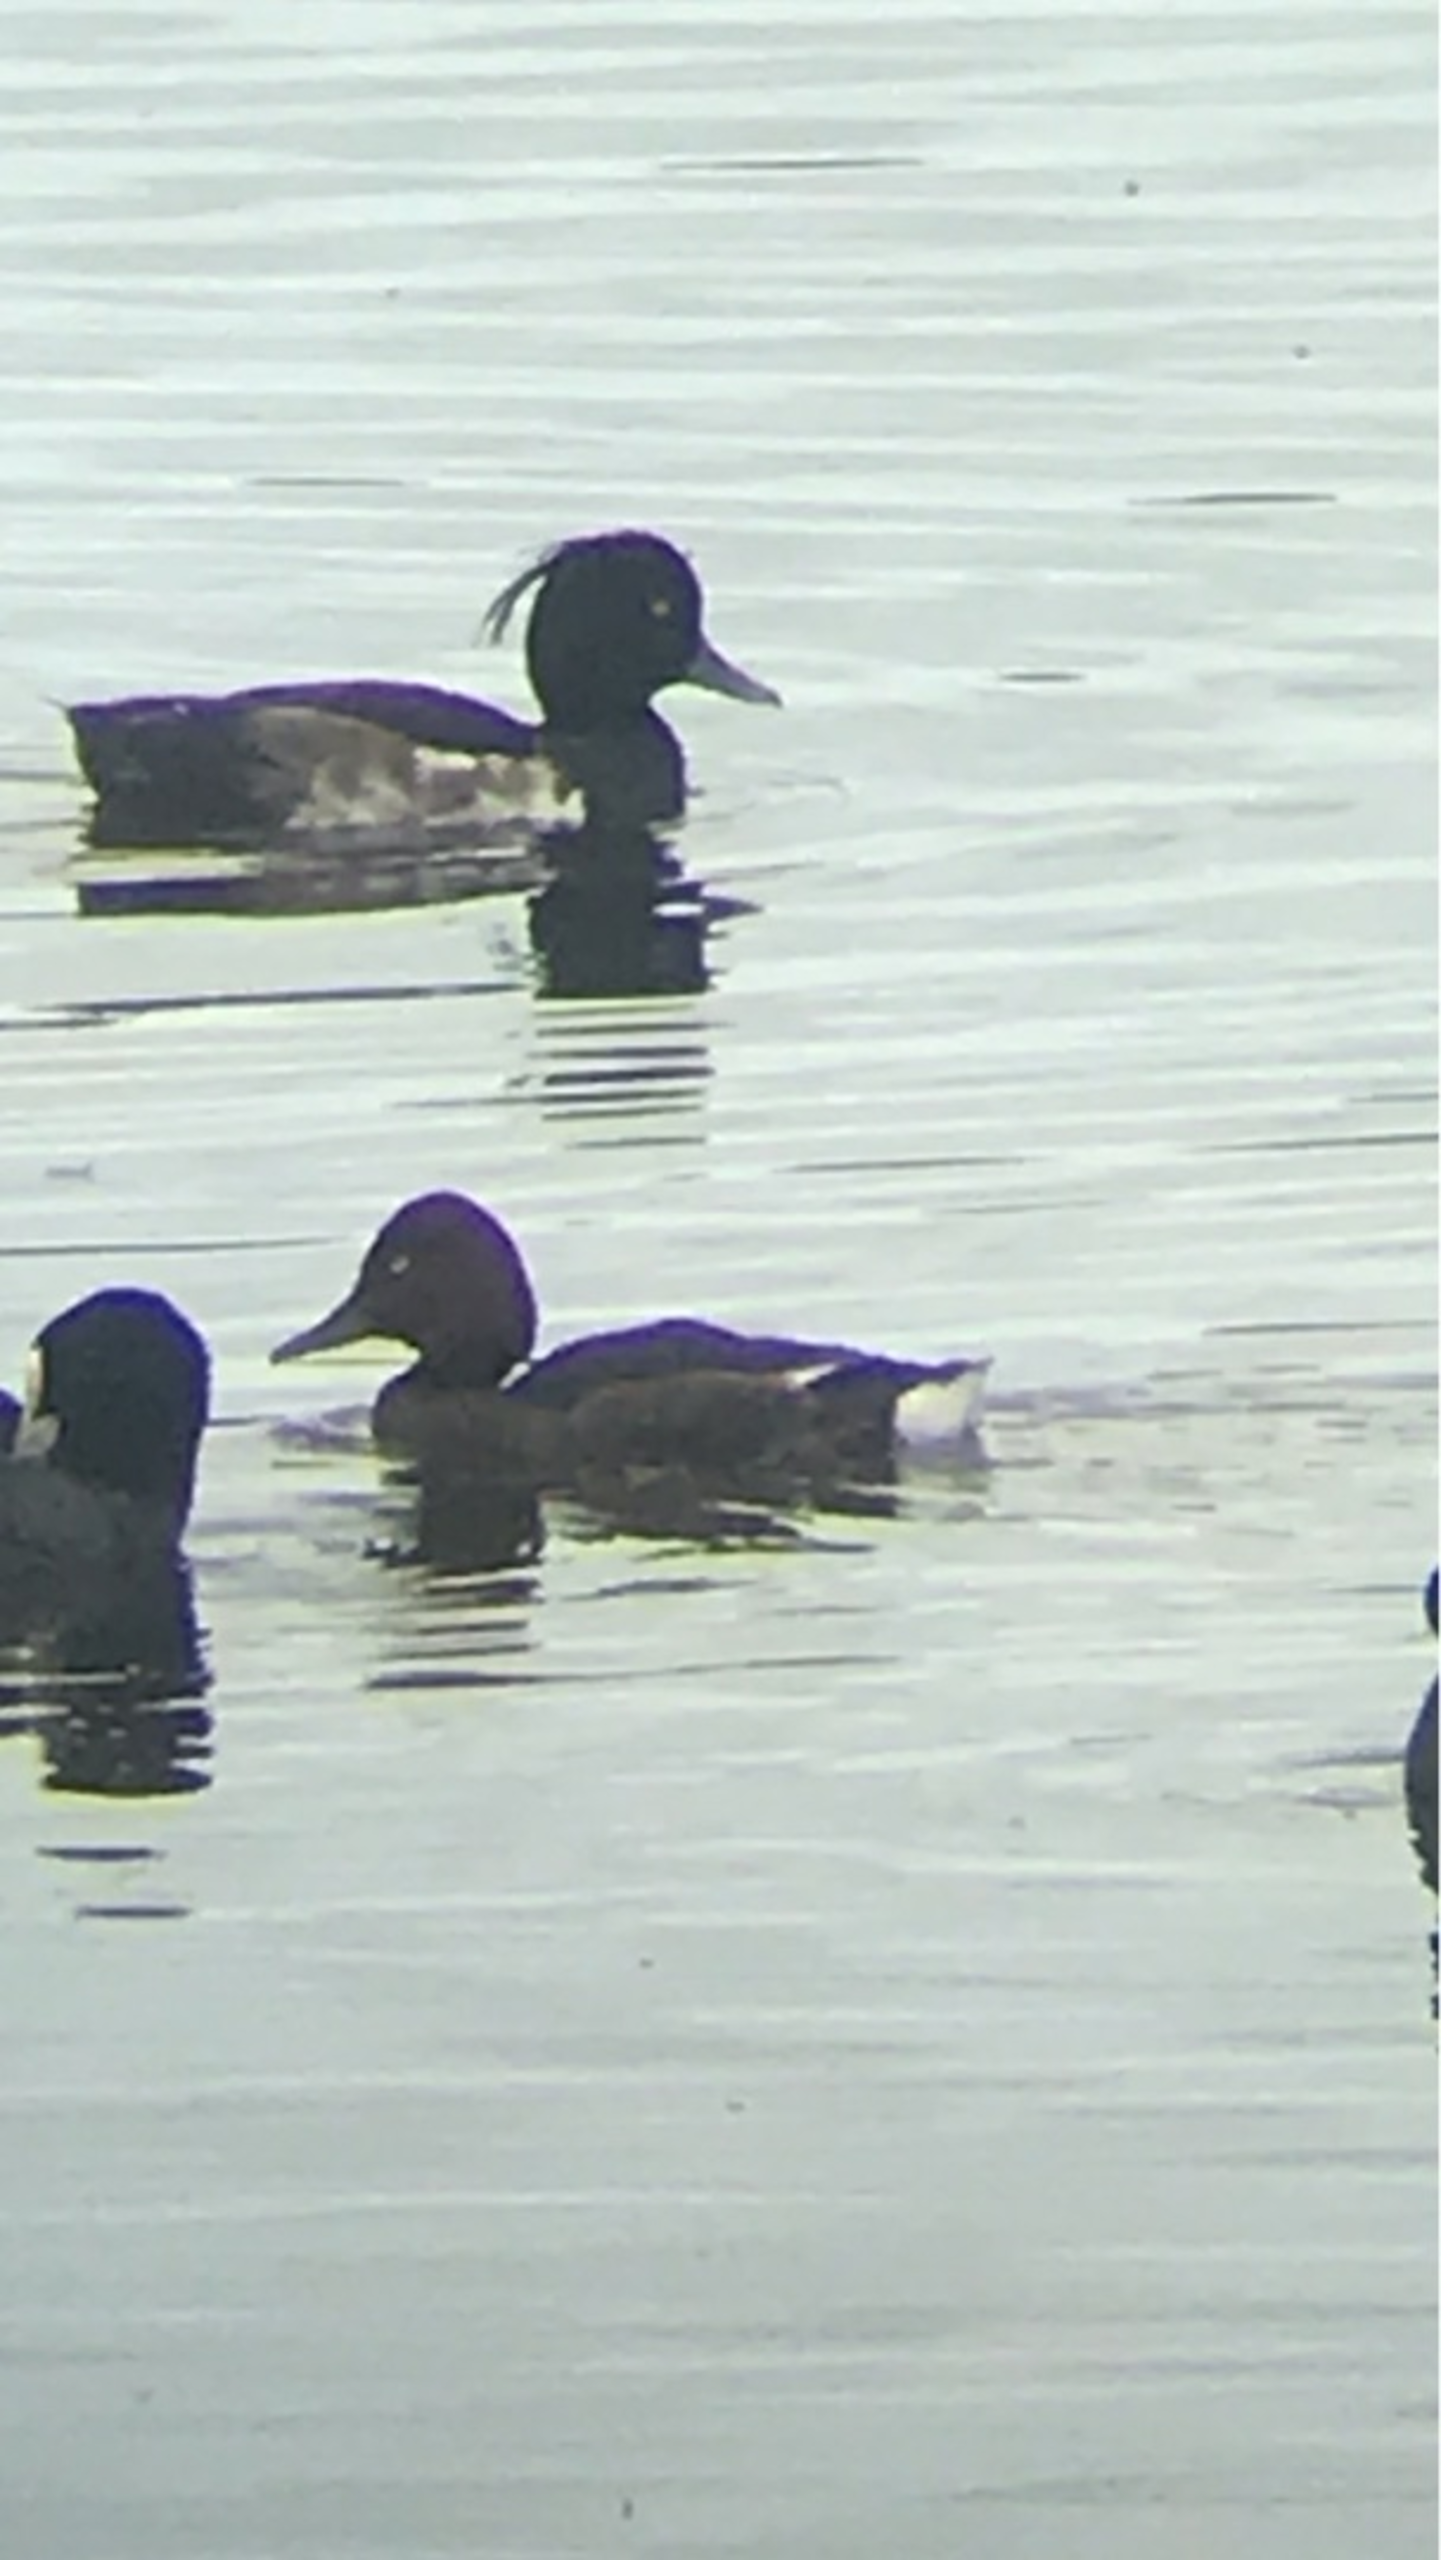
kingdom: Animalia
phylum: Chordata
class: Aves
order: Anseriformes
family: Anatidae
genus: Aythya
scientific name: Aythya nyroca
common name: Hvidøjet and
